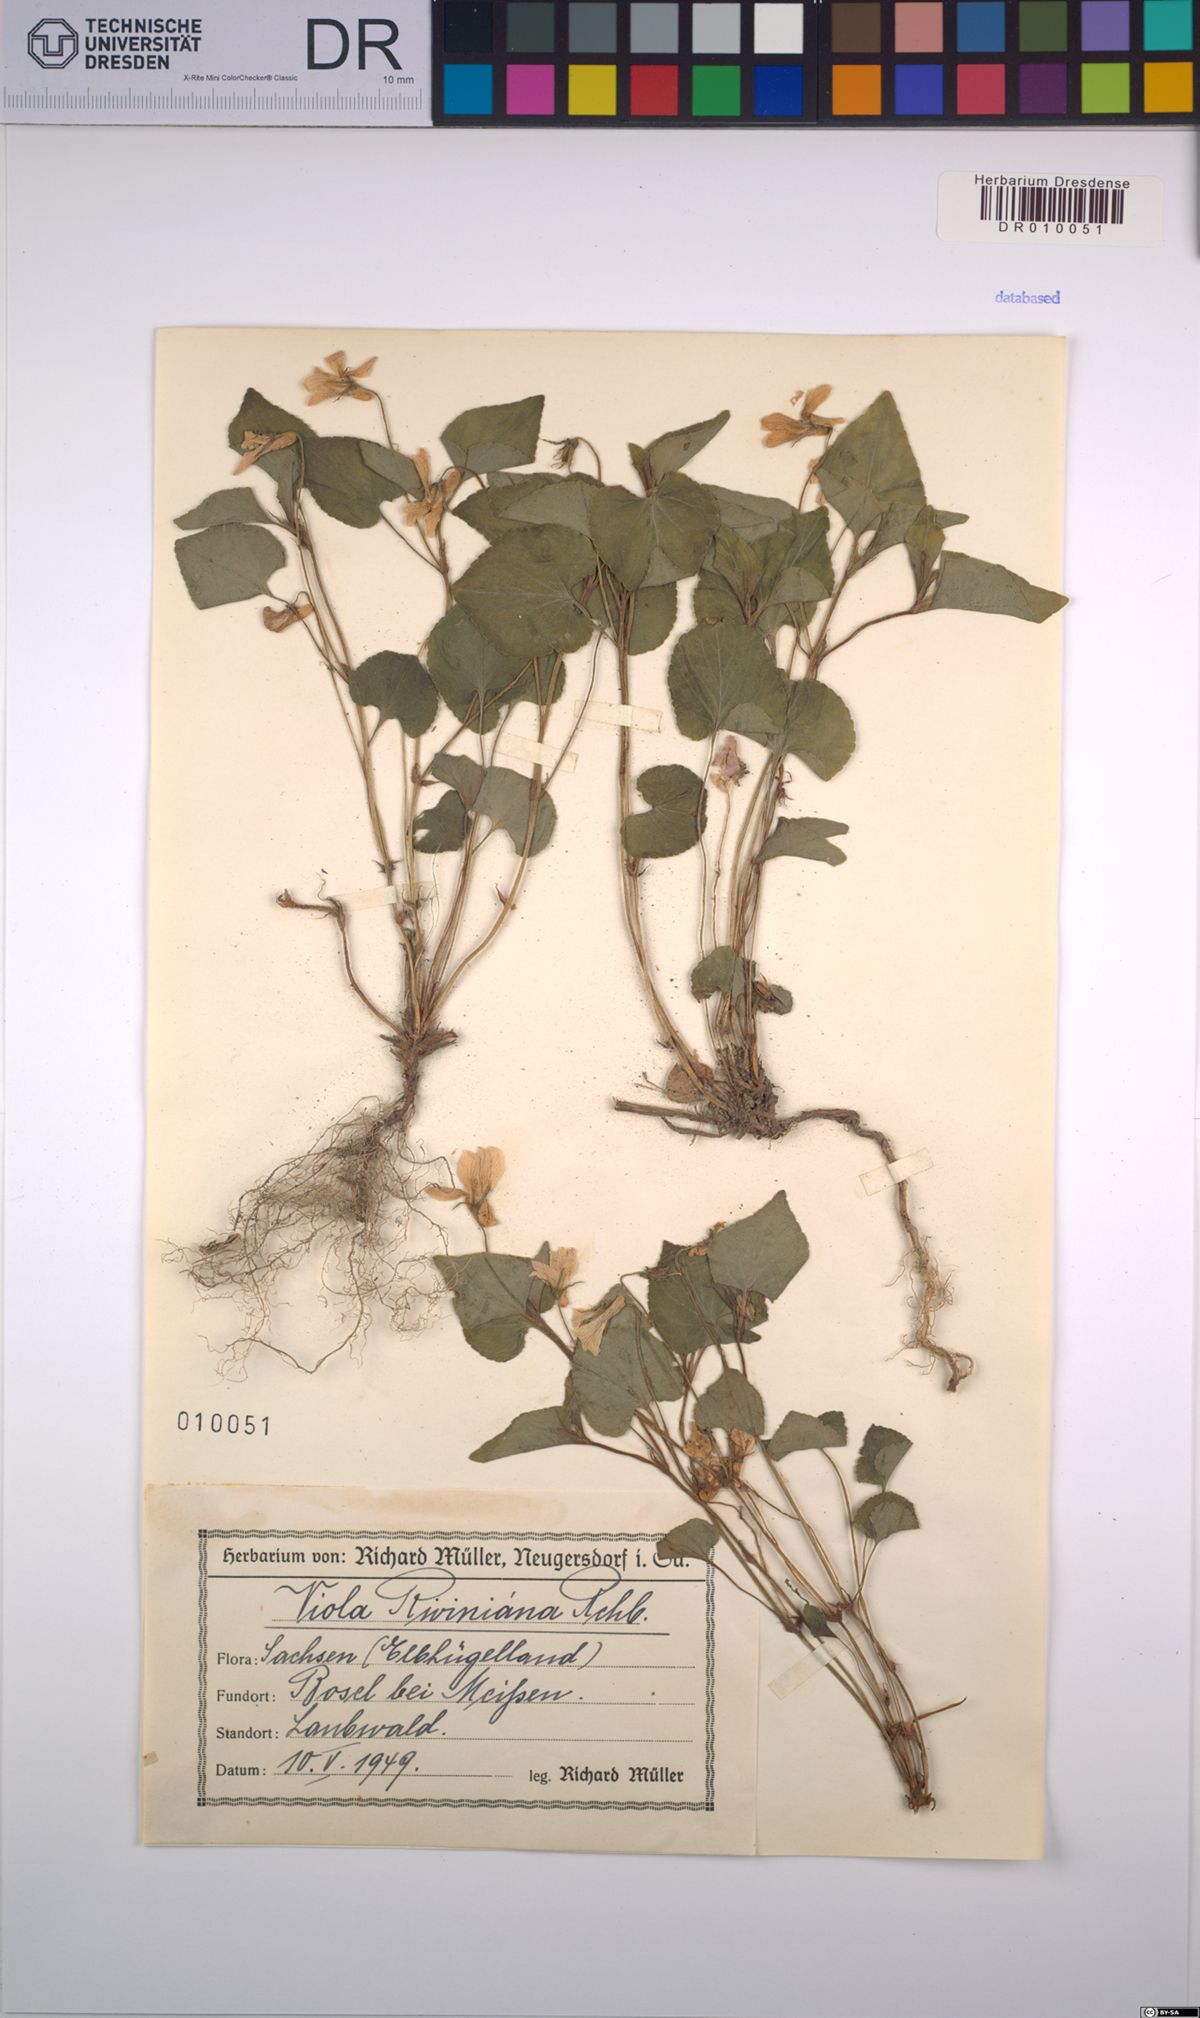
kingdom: Plantae
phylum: Tracheophyta
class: Magnoliopsida
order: Malpighiales
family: Violaceae
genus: Viola
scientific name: Viola riviniana
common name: Common dog-violet
